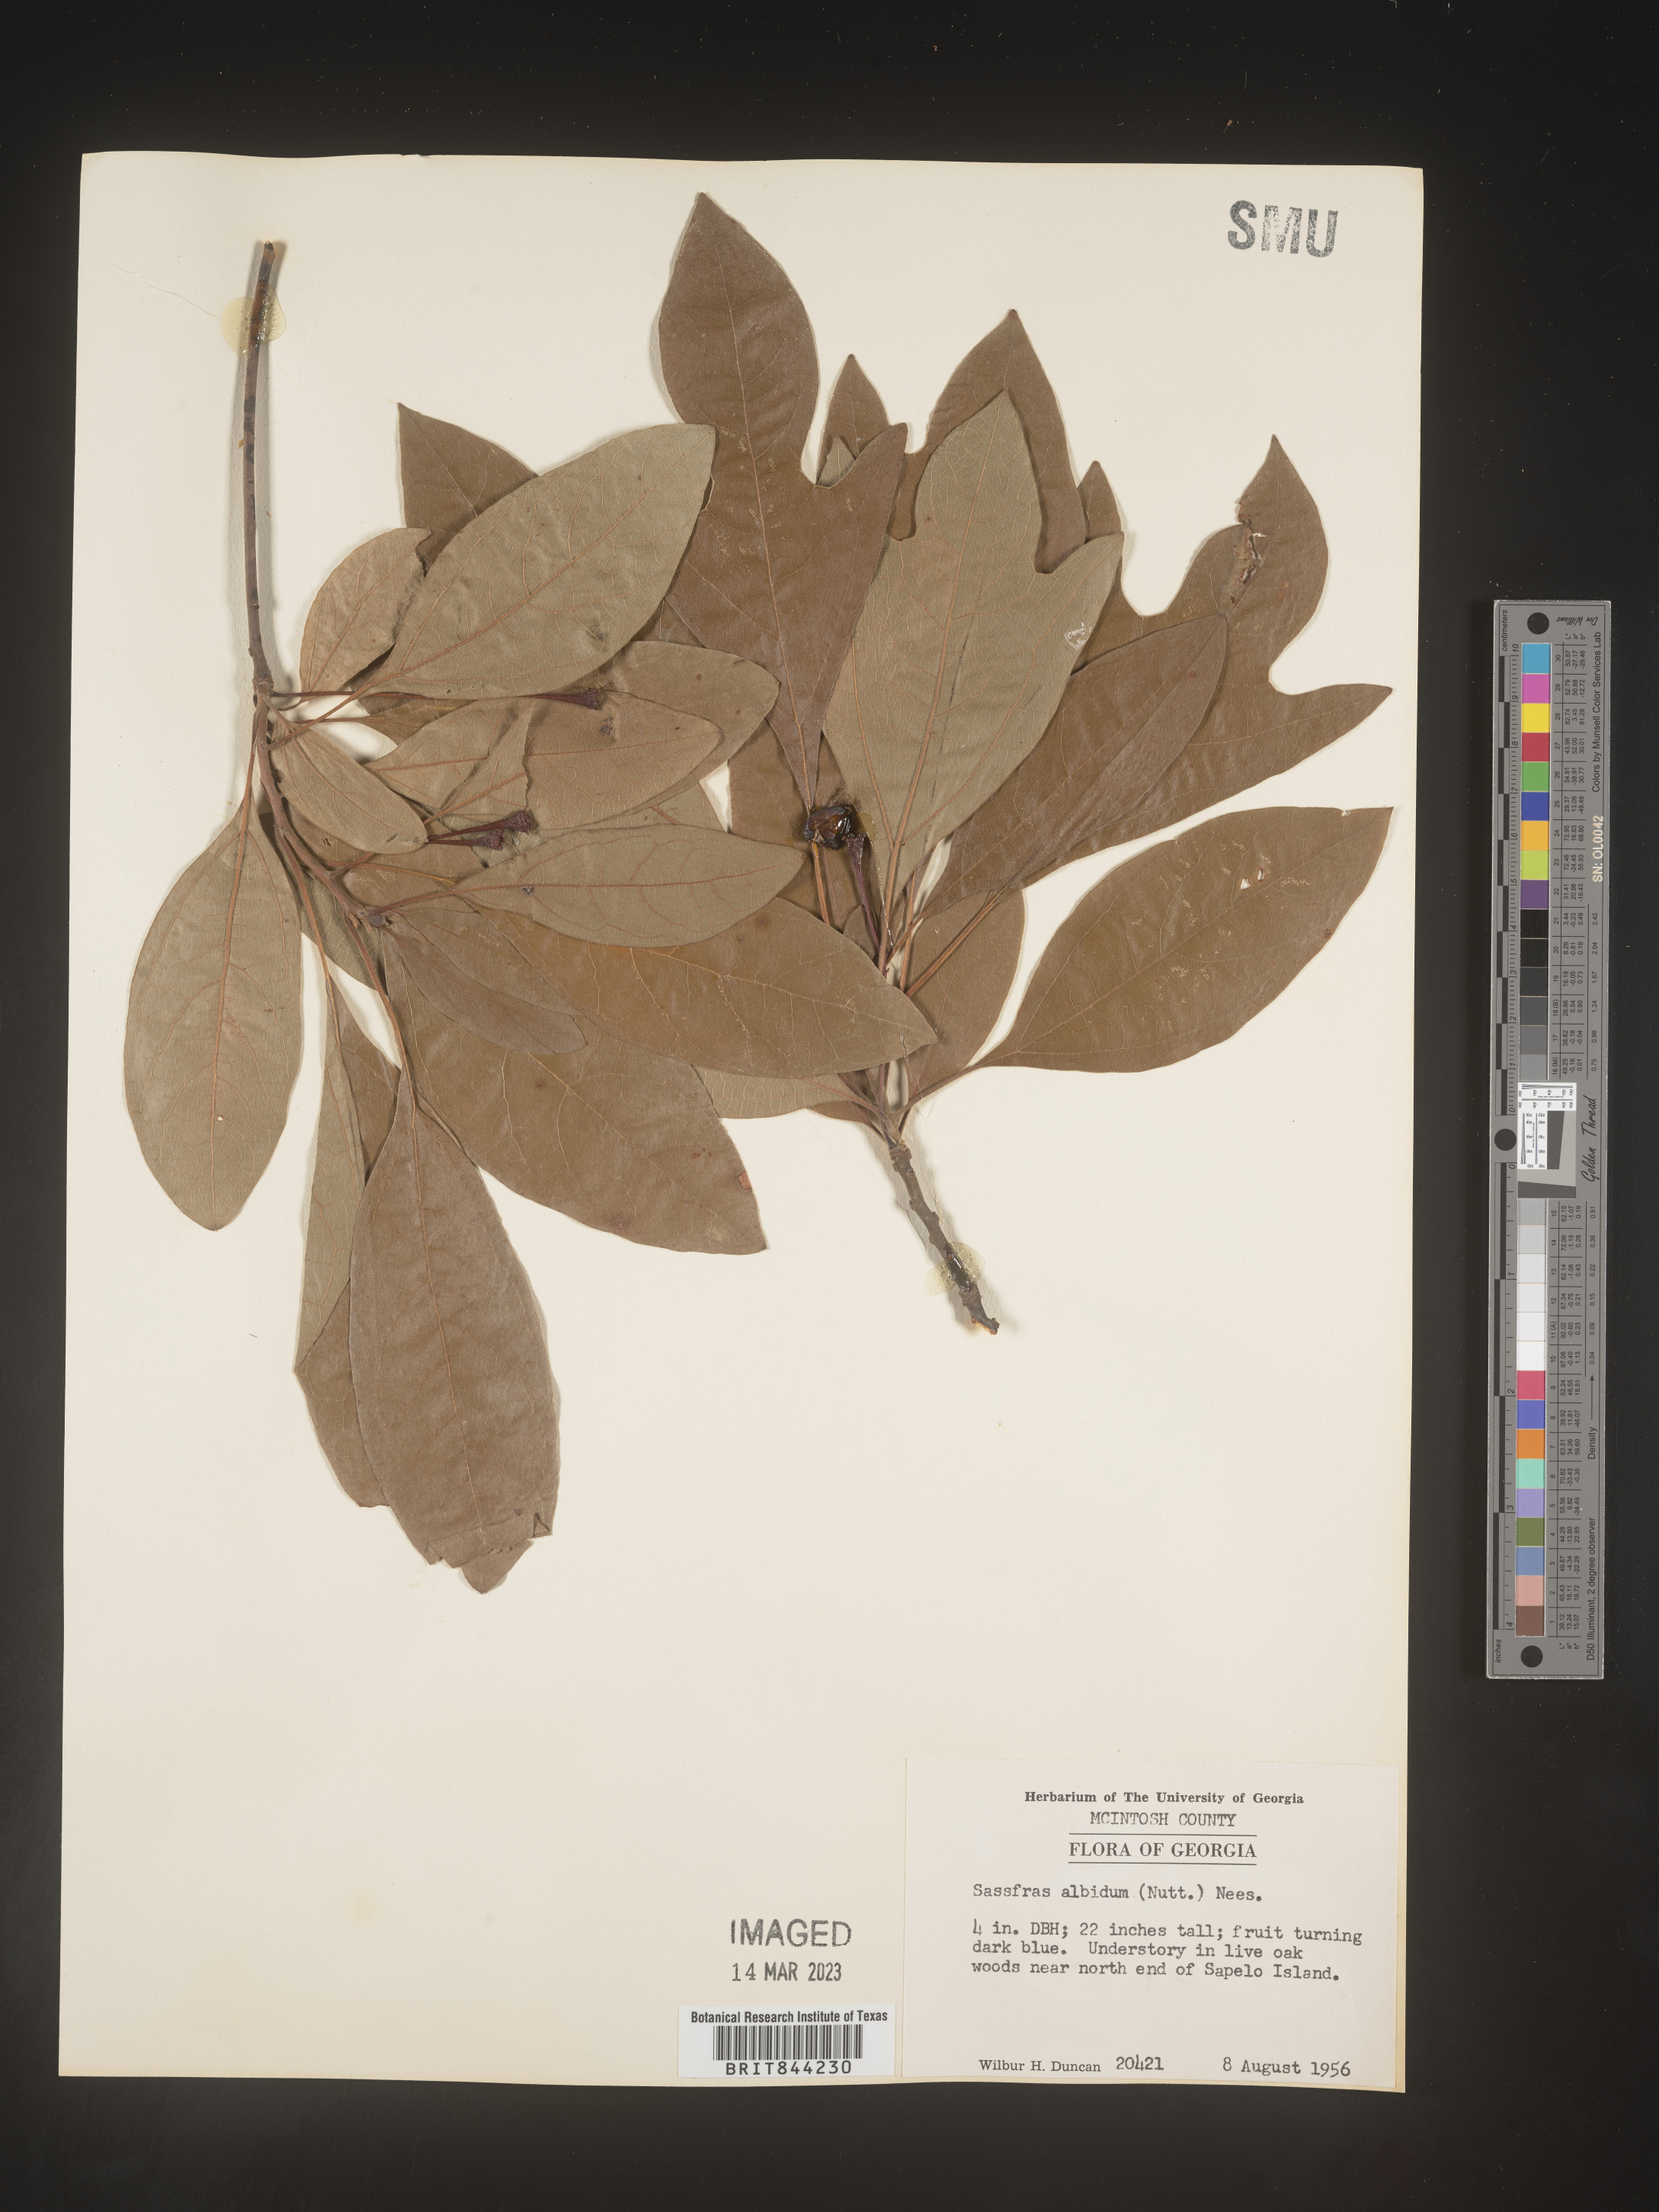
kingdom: Plantae
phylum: Tracheophyta
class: Magnoliopsida
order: Laurales
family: Lauraceae
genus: Sassafras
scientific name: Sassafras albidum
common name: Sassafras
